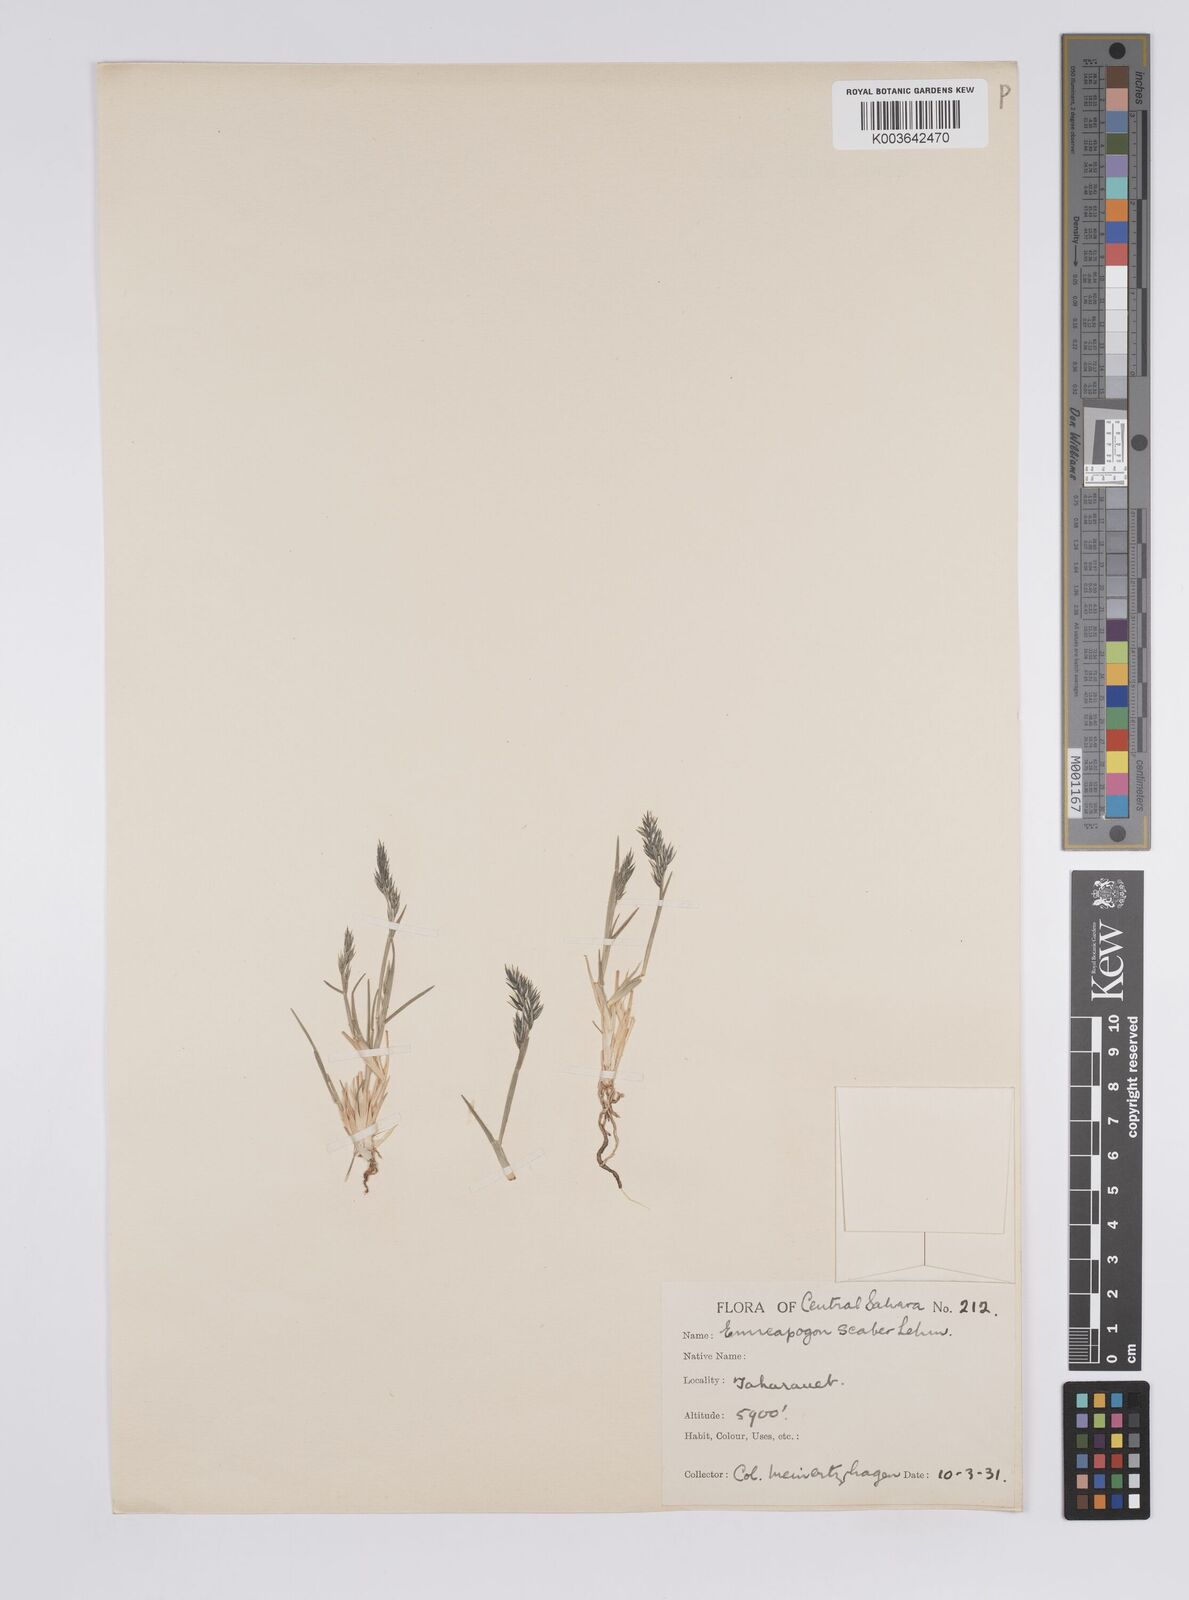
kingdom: Plantae
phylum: Tracheophyta
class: Liliopsida
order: Poales
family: Poaceae
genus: Enneapogon
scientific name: Enneapogon scaber
